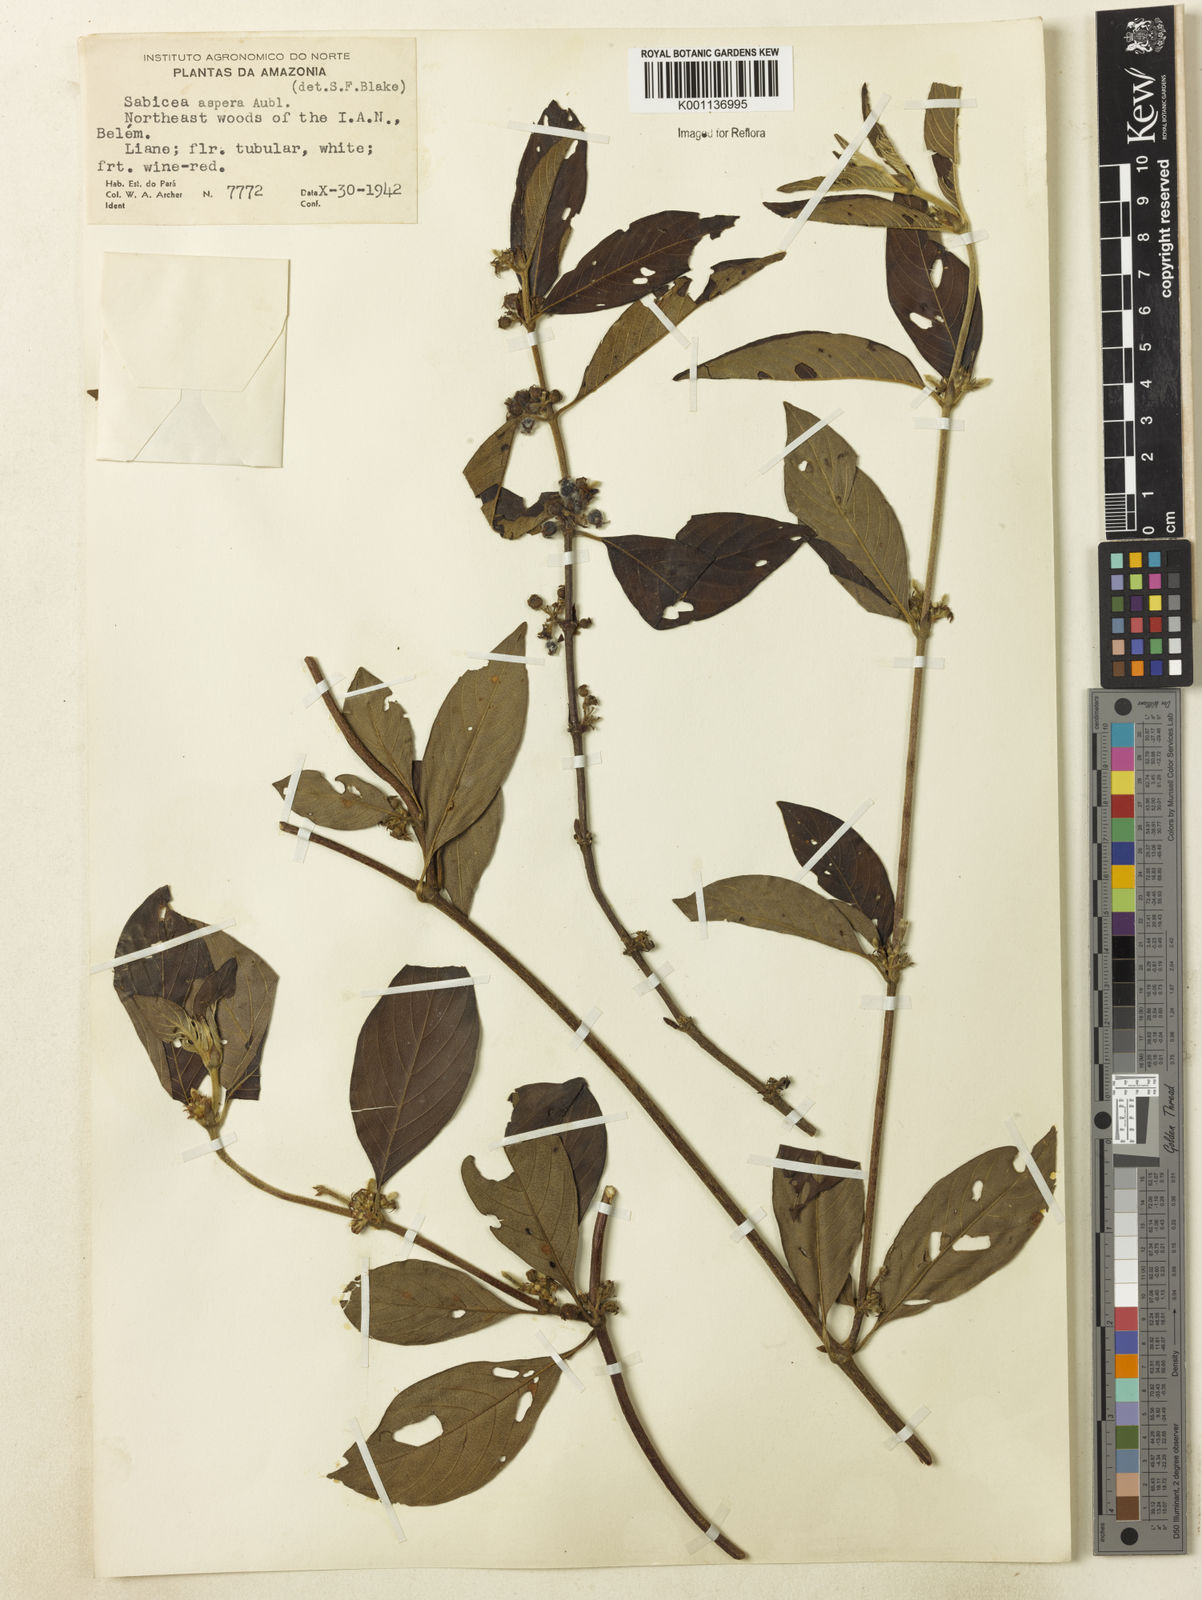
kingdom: Plantae
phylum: Tracheophyta
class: Magnoliopsida
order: Gentianales
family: Rubiaceae
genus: Sabicea
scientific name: Sabicea aspera
